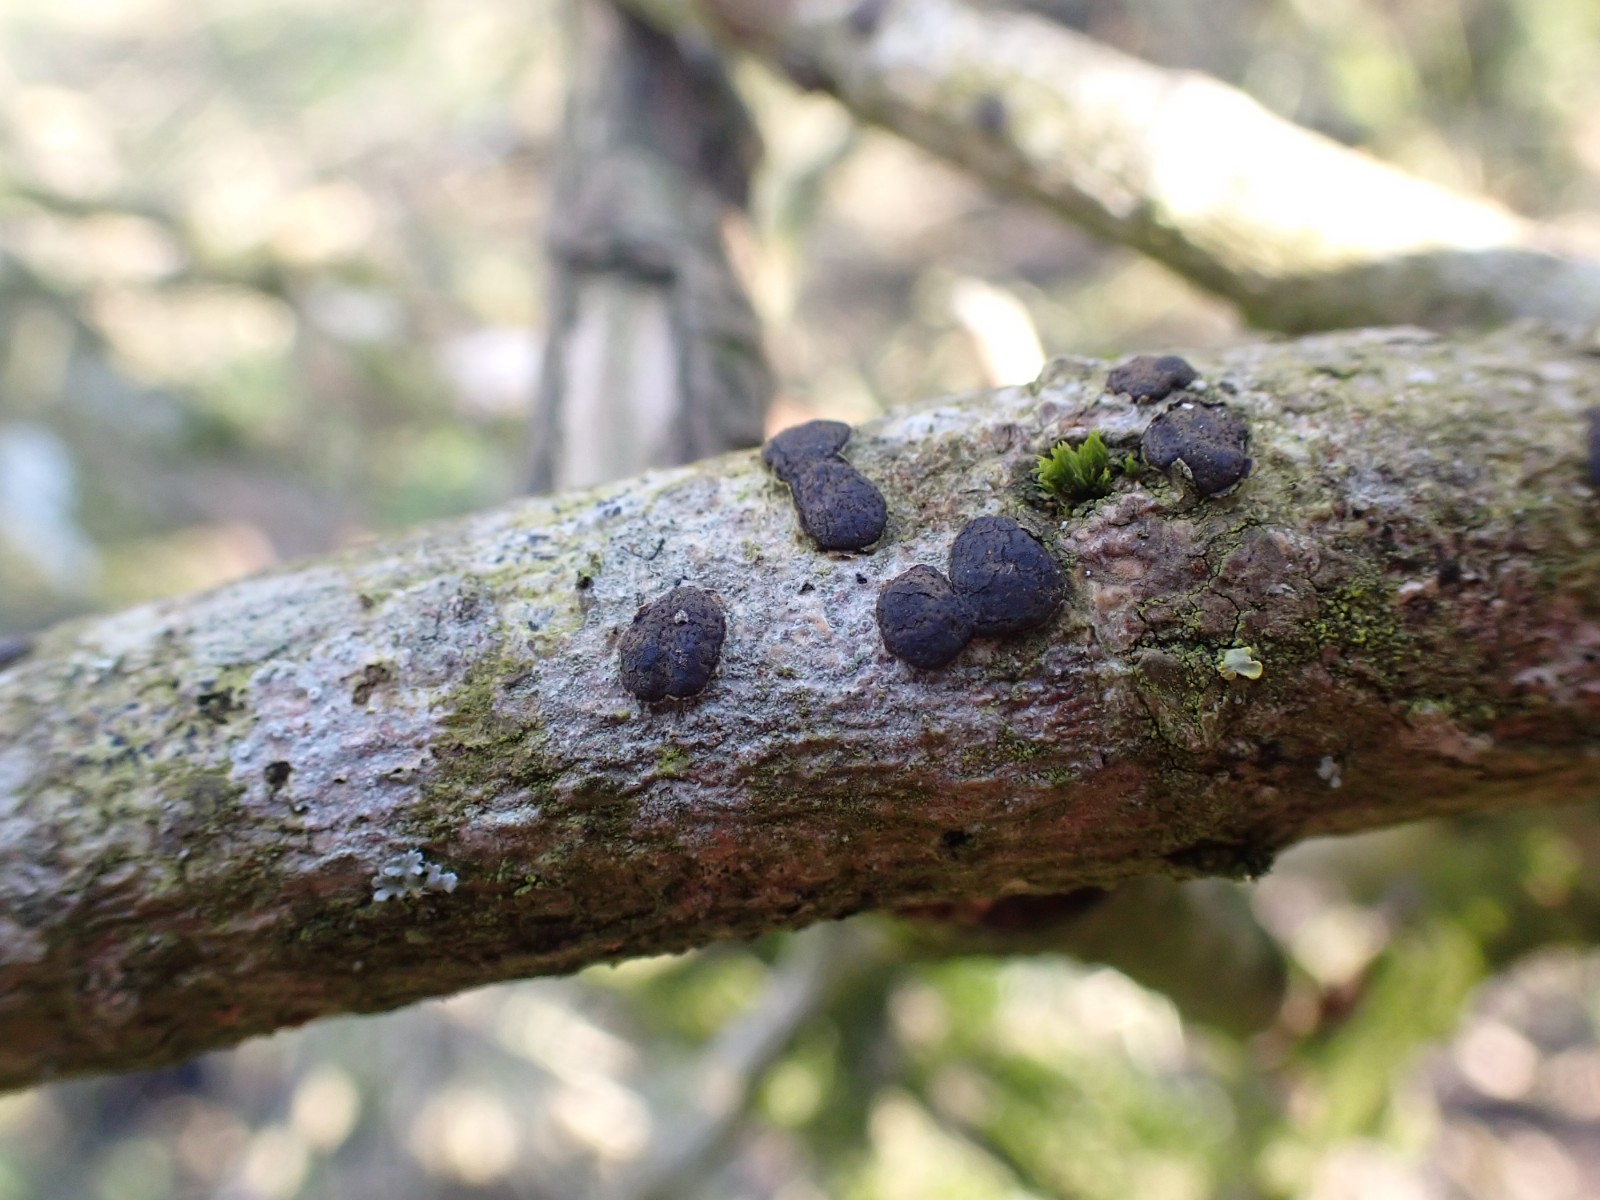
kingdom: Fungi
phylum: Ascomycota
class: Sordariomycetes
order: Xylariales
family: Diatrypaceae
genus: Diatrype
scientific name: Diatrype bullata
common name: pile-kulskorpe
